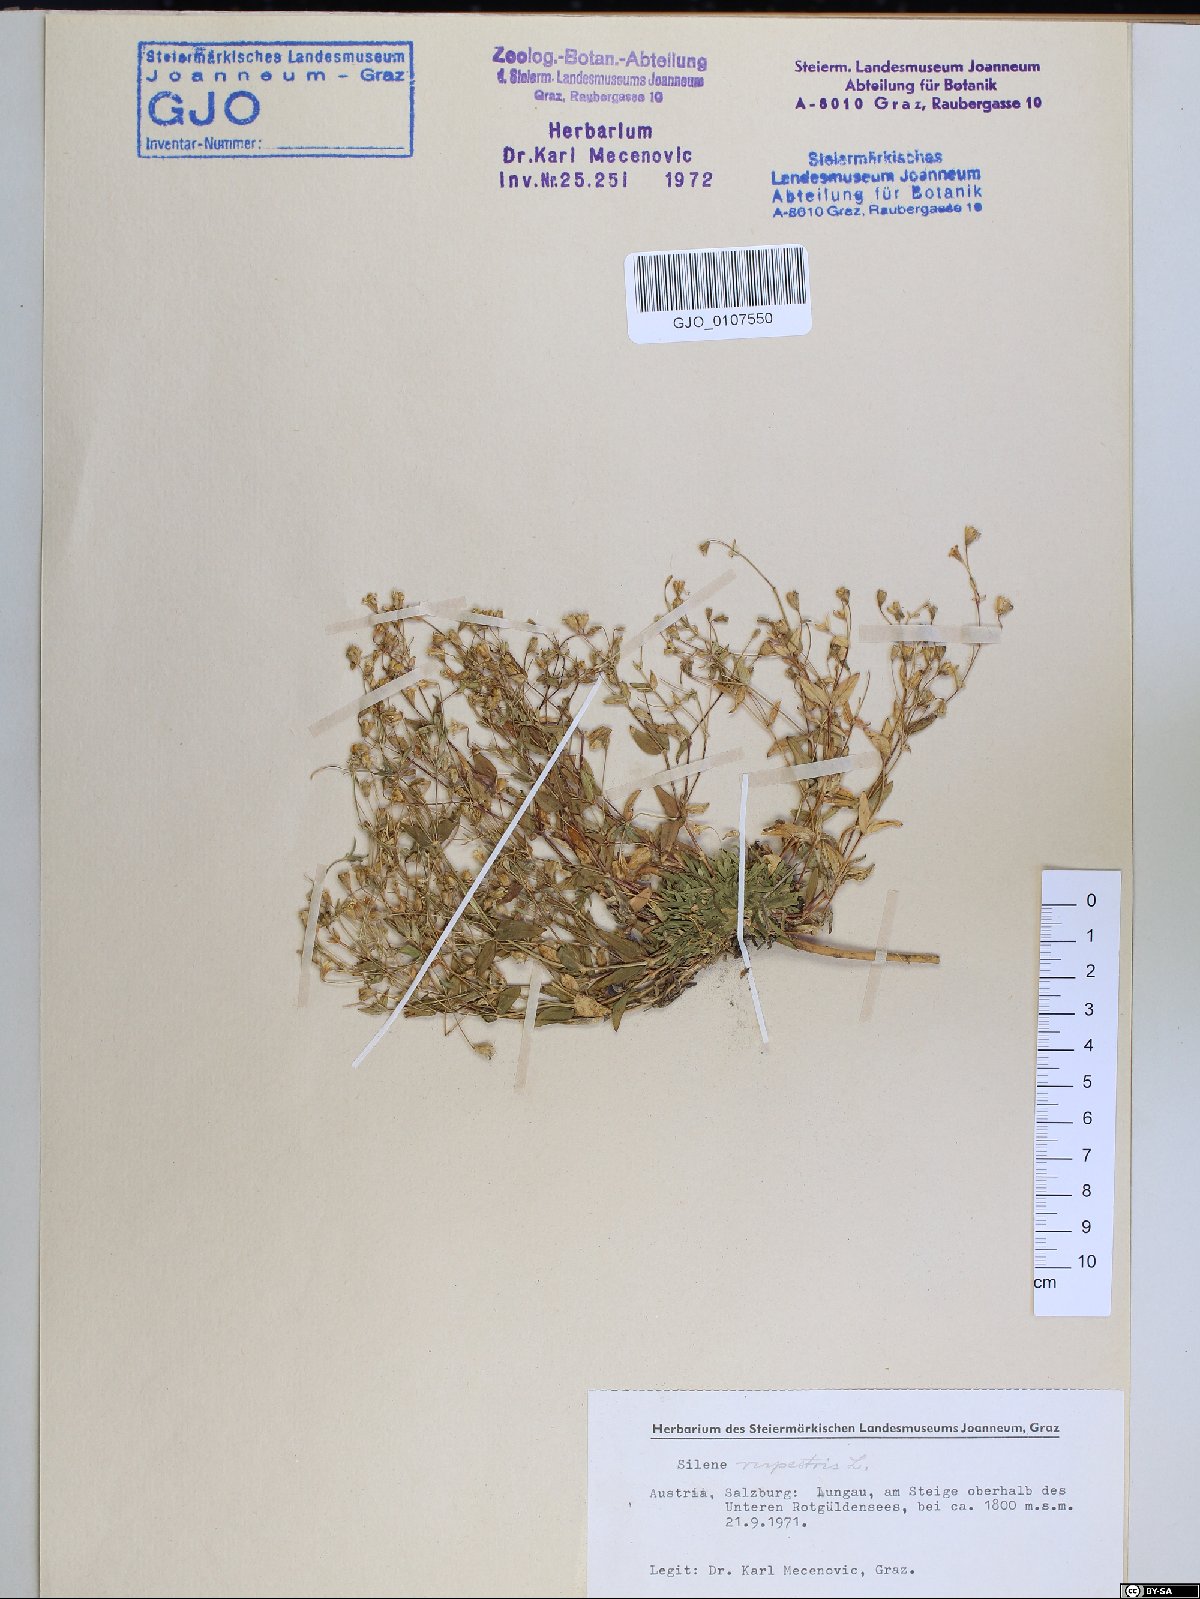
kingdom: Plantae
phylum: Tracheophyta
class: Magnoliopsida
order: Caryophyllales
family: Caryophyllaceae
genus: Atocion
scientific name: Atocion rupestre
